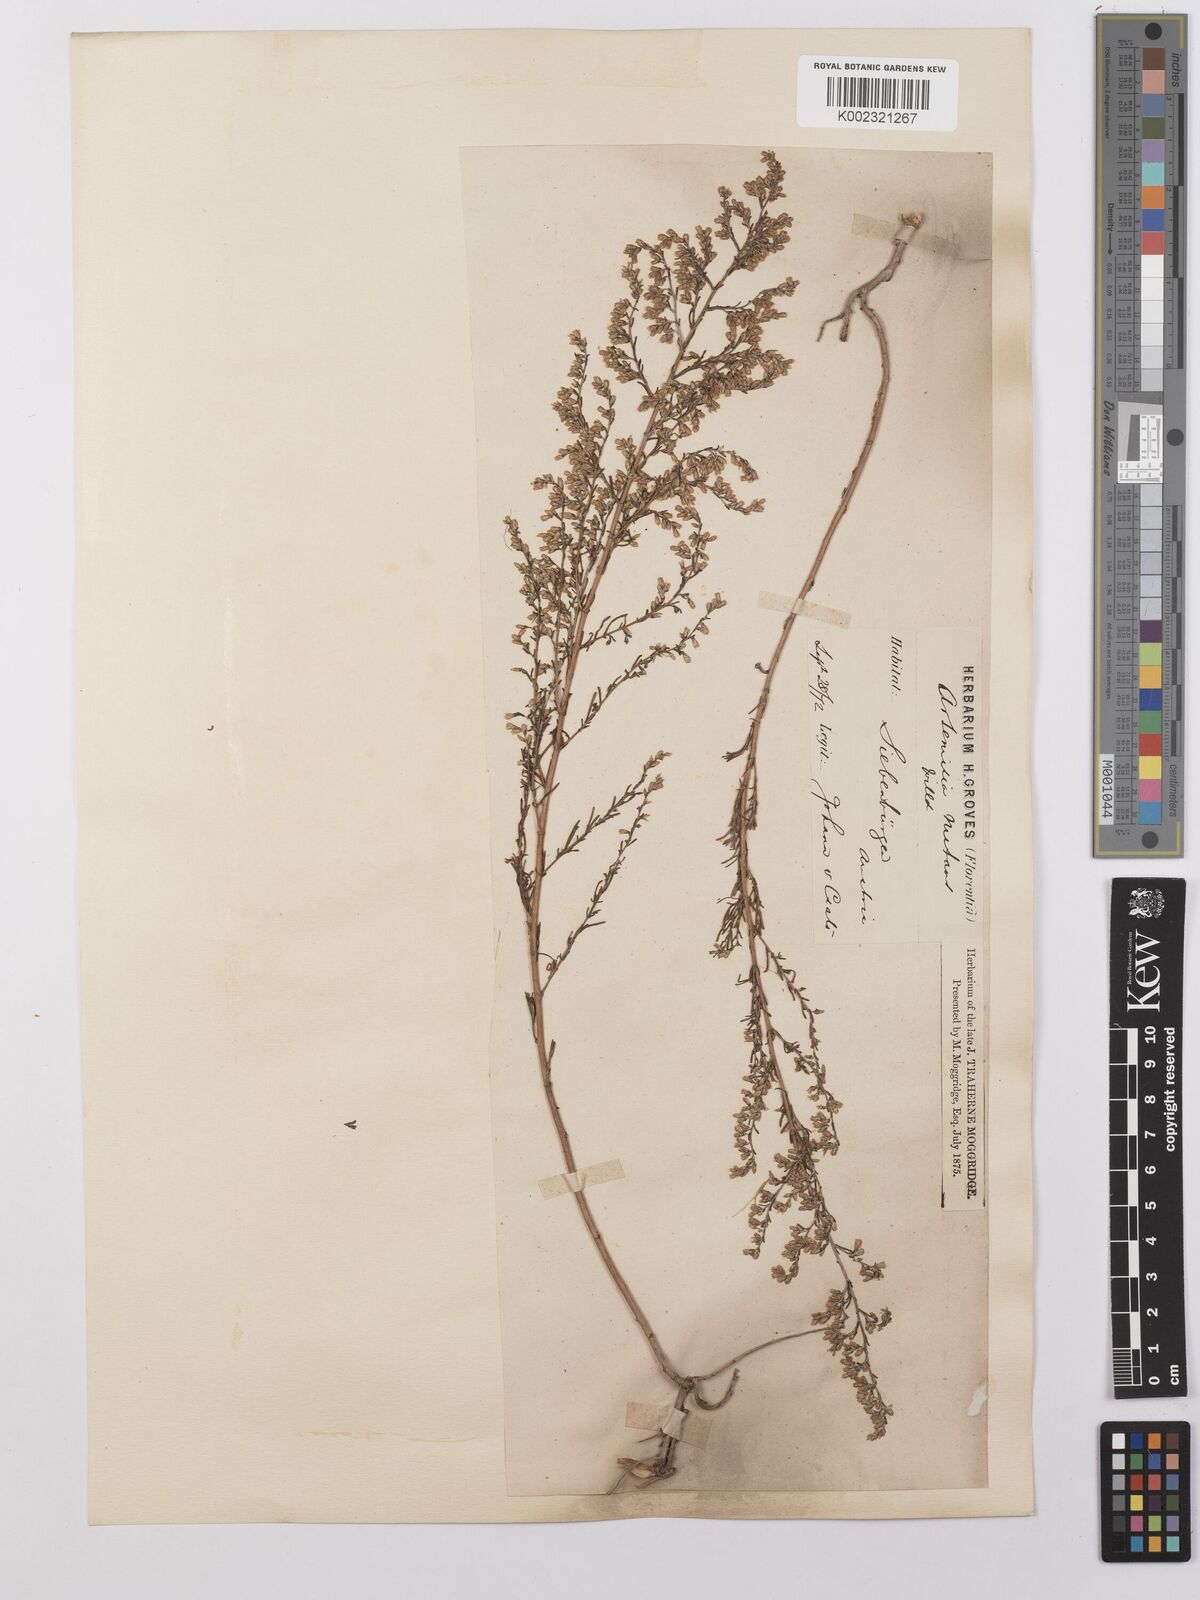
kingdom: Plantae
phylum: Tracheophyta
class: Magnoliopsida
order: Asterales
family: Asteraceae
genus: Artemisia
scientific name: Artemisia nutans
